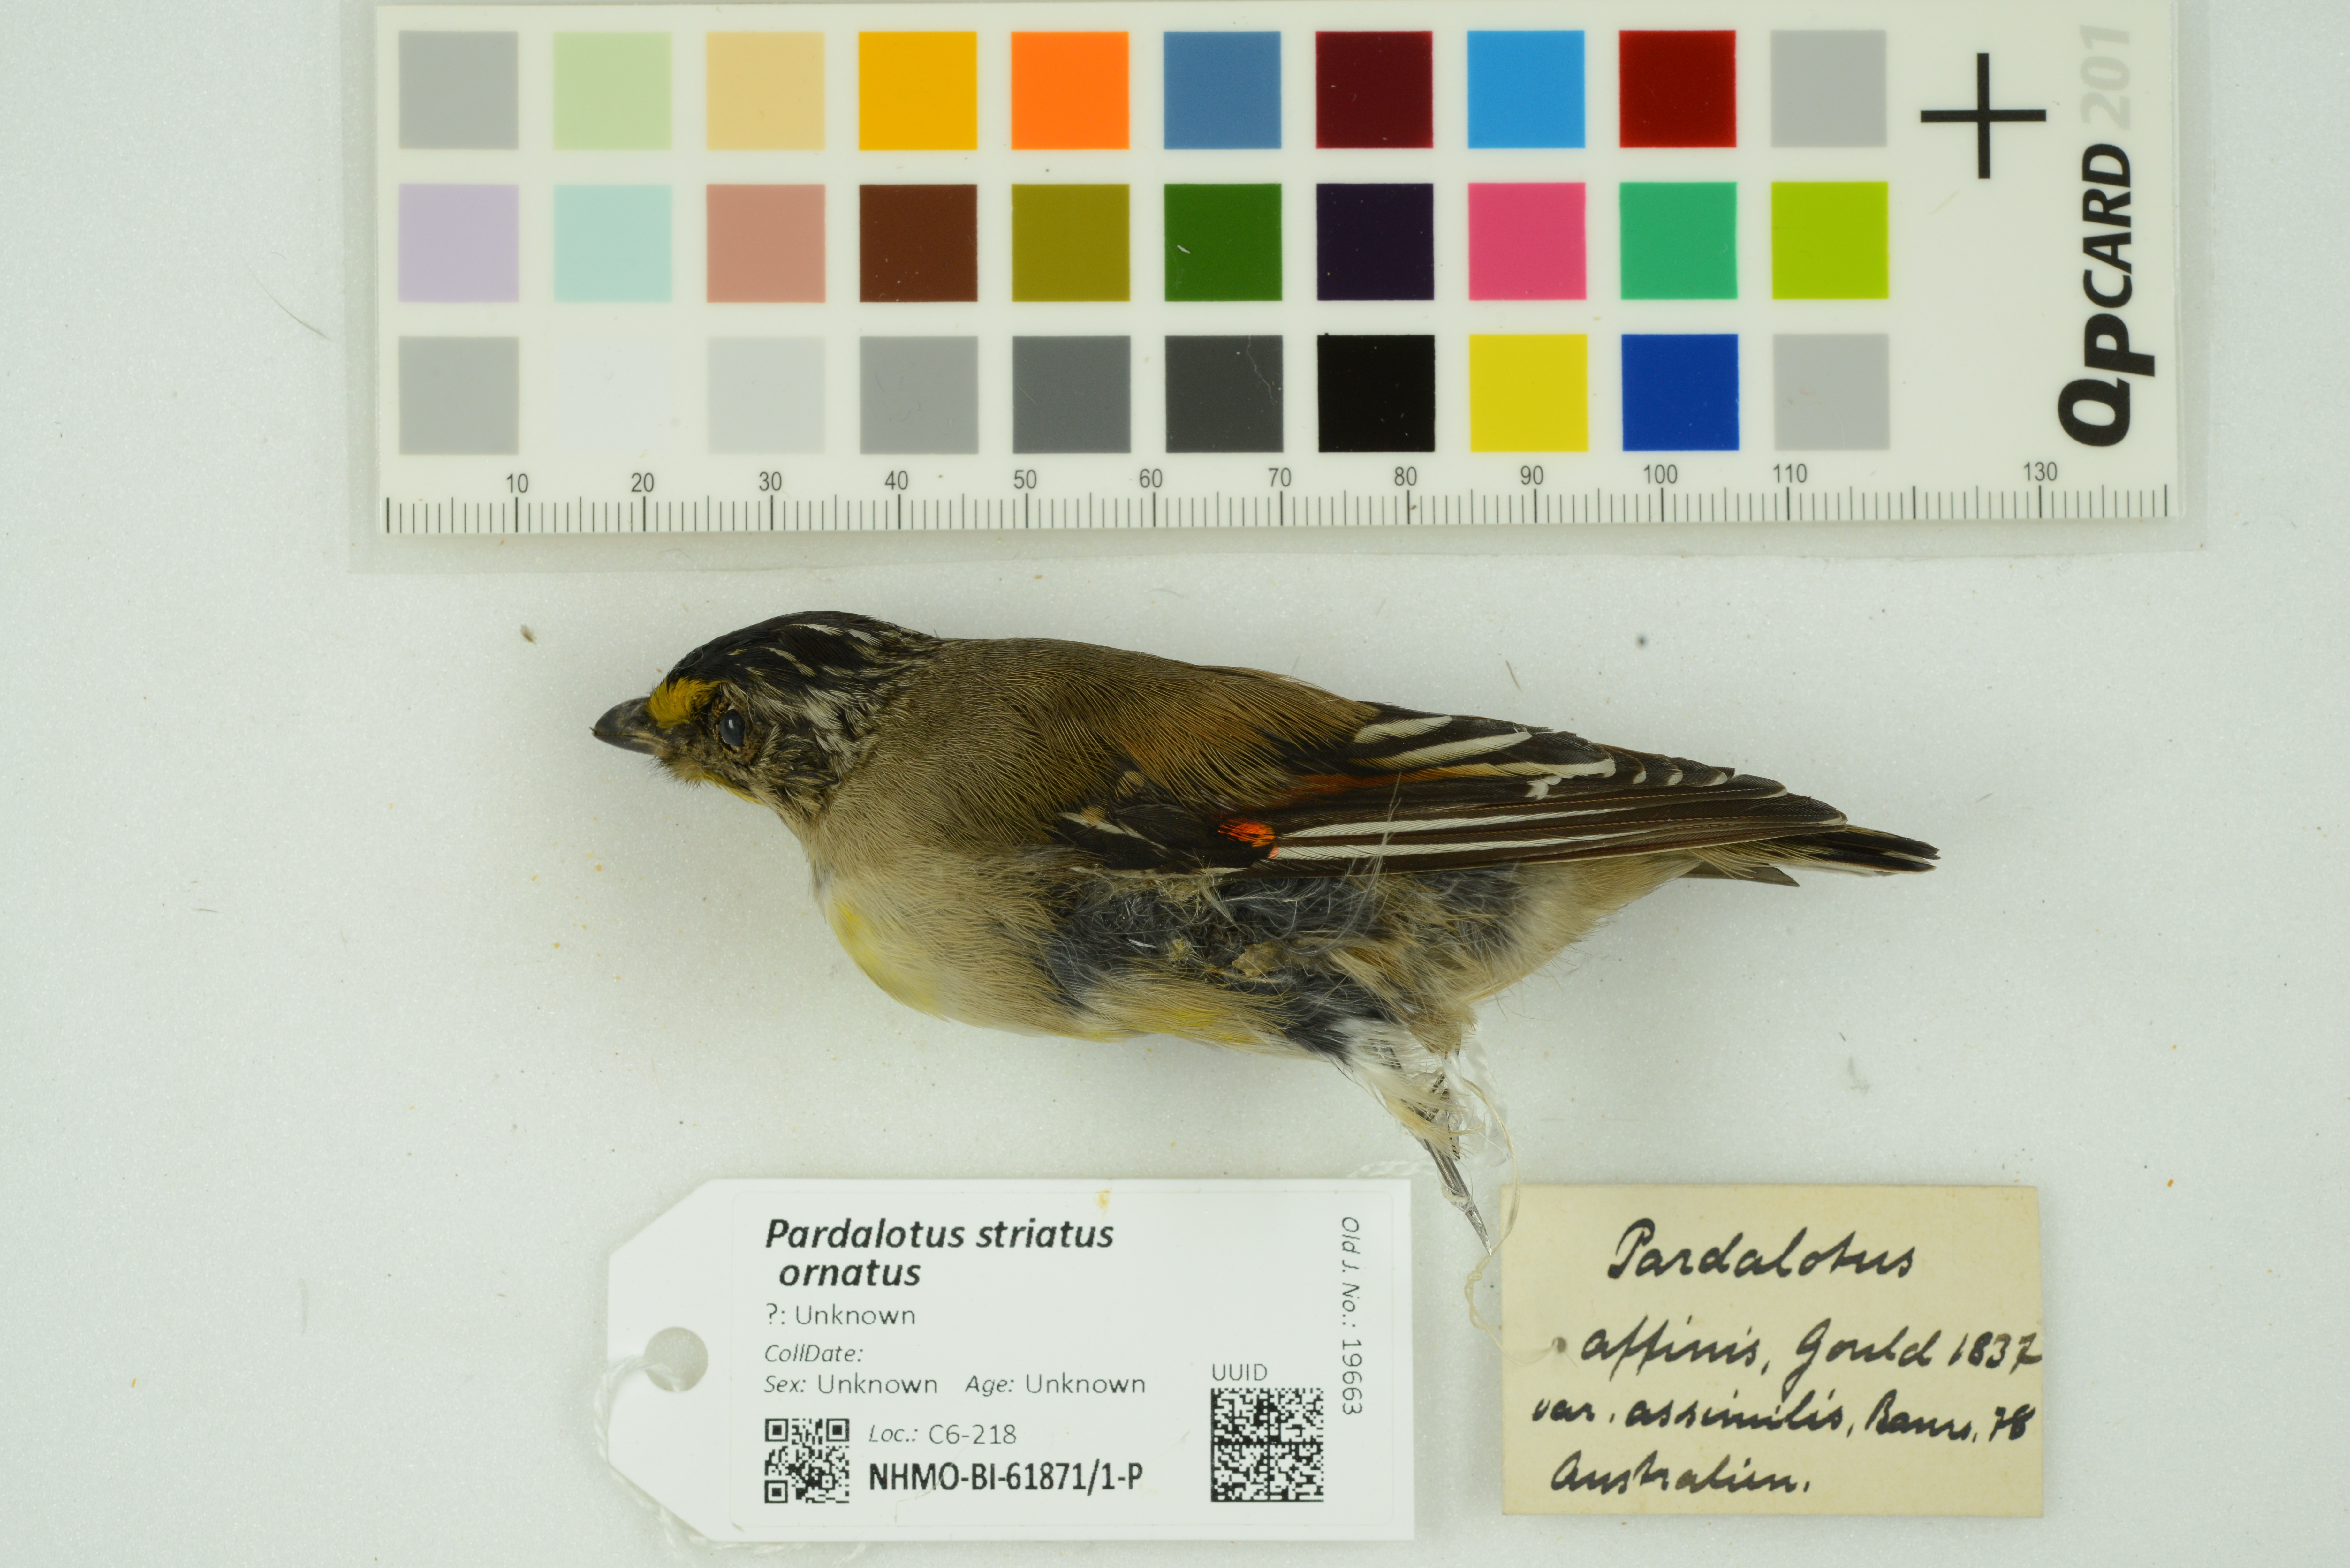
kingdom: Animalia
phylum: Chordata
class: Aves
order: Passeriformes
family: Pardalotidae
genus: Pardalotus
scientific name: Pardalotus striatus
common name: Striated pardalote
